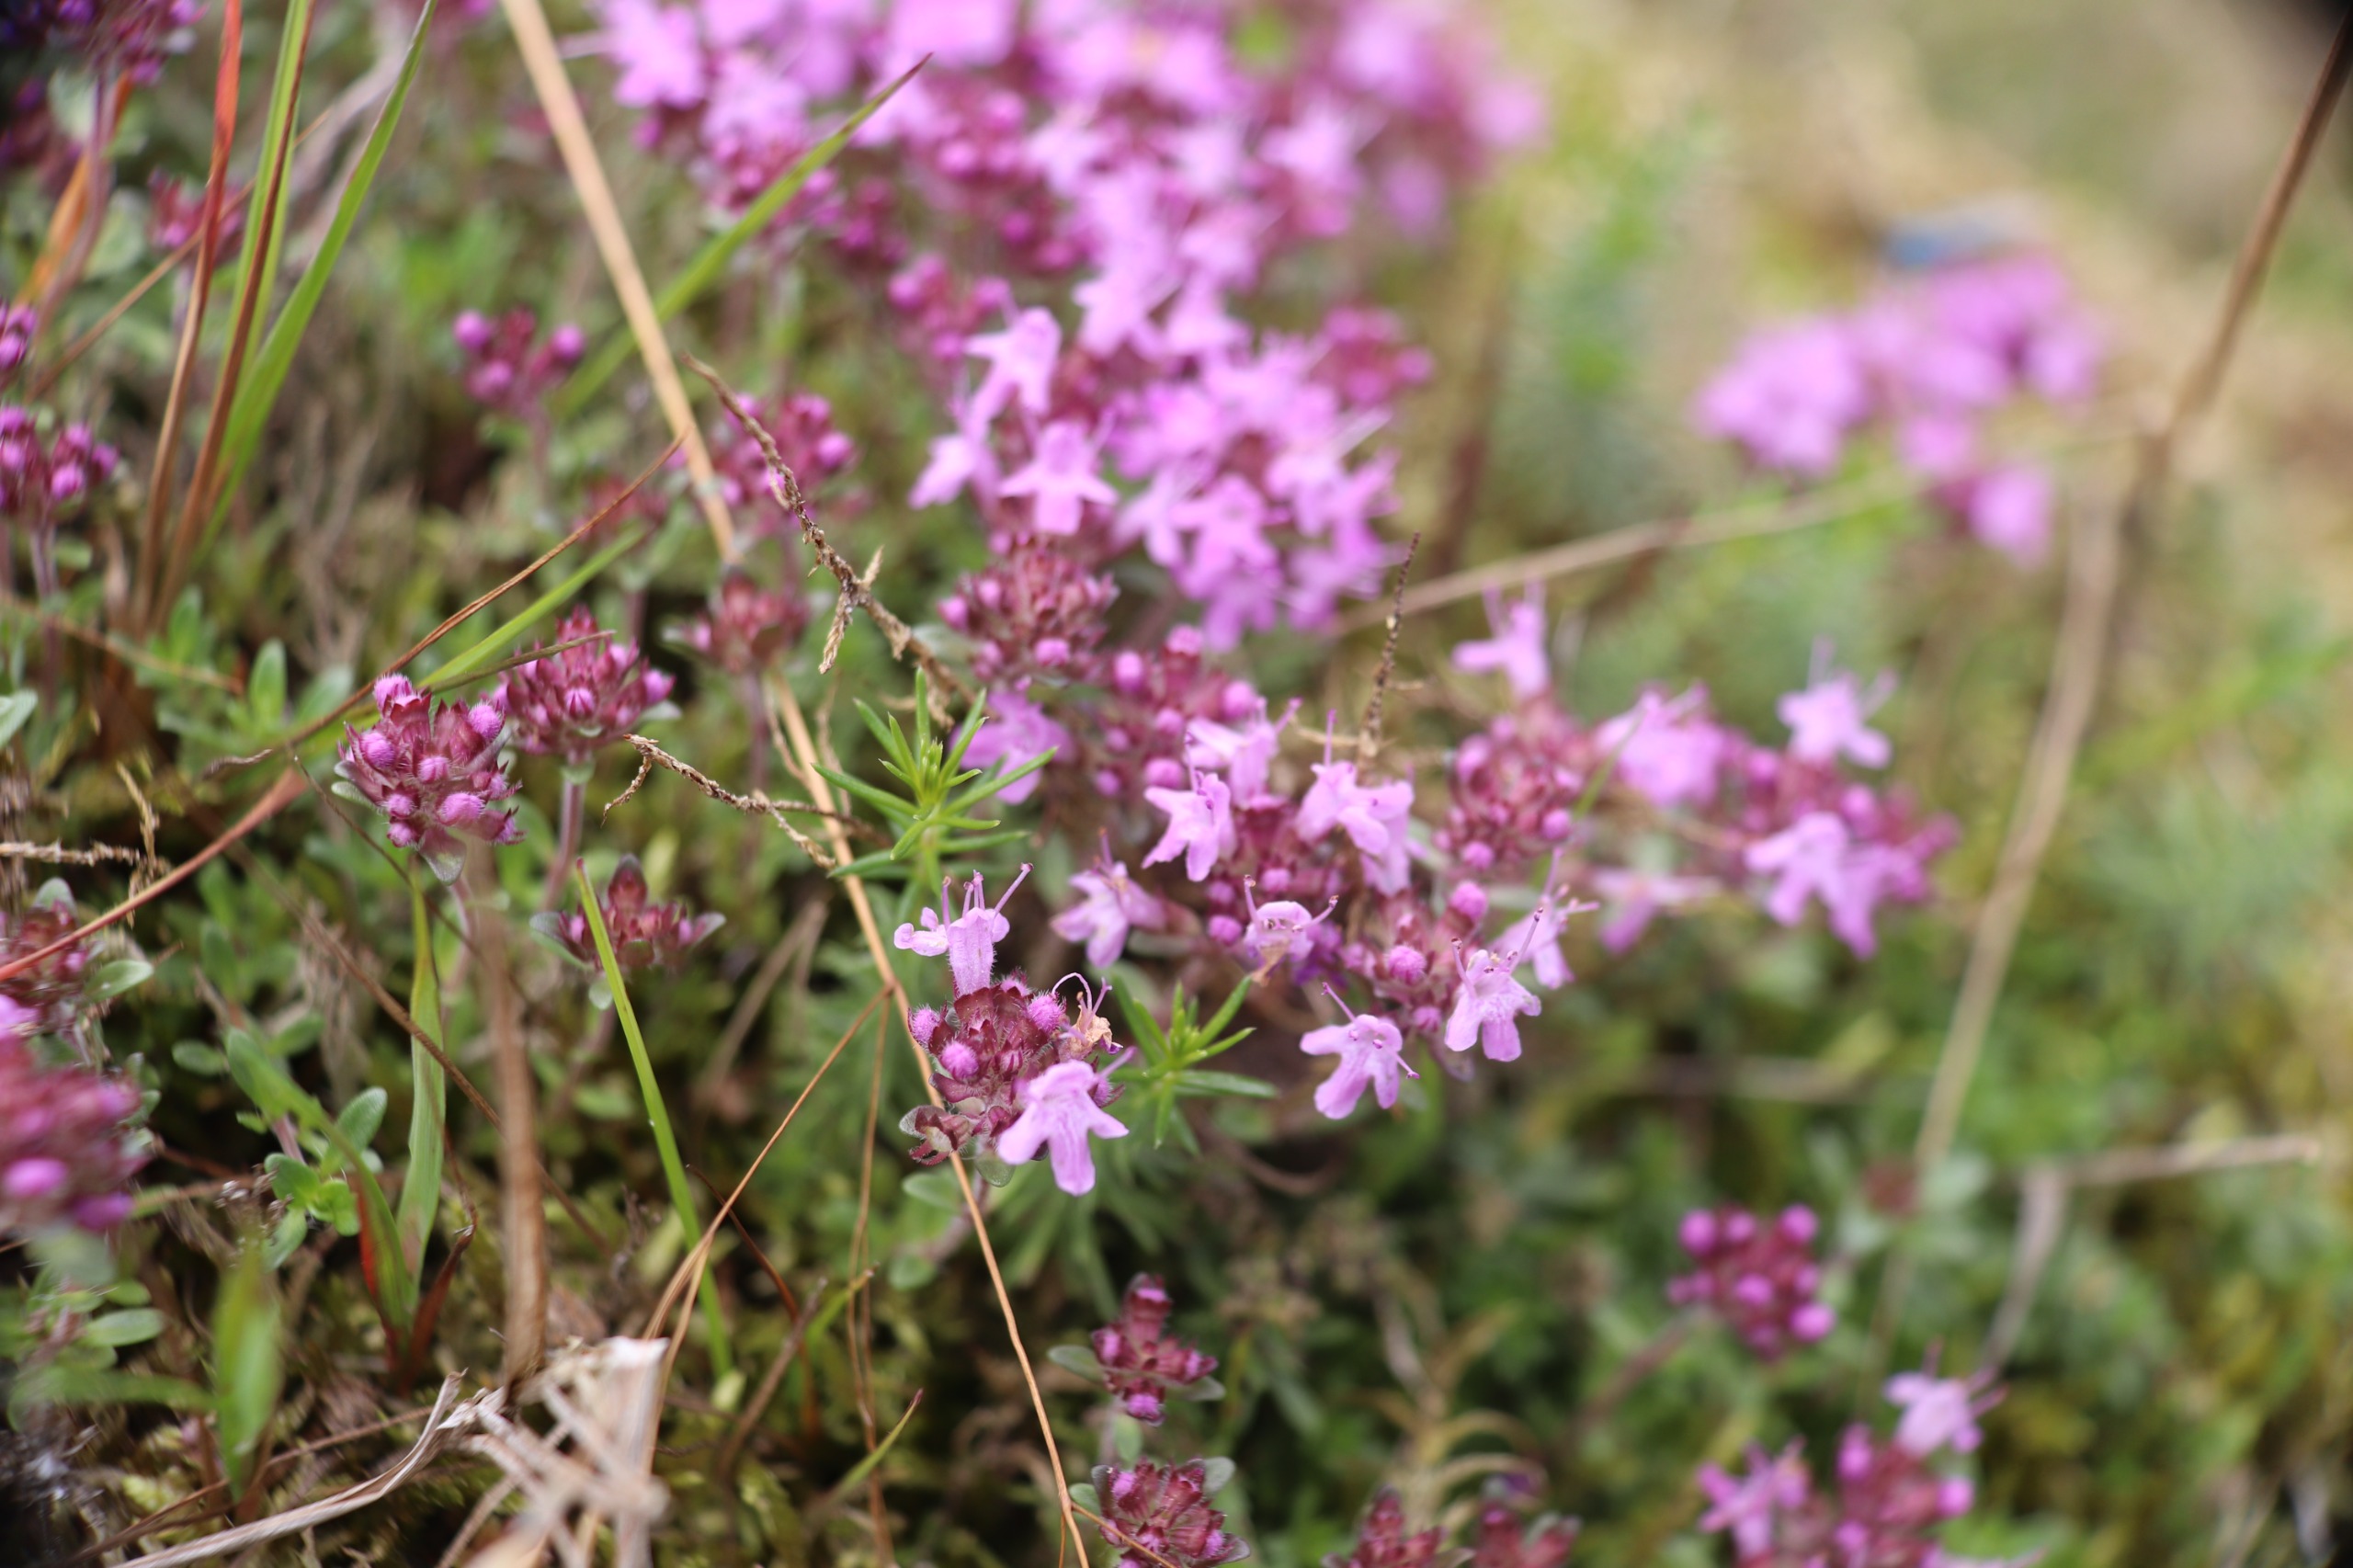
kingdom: Plantae
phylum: Tracheophyta
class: Magnoliopsida
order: Lamiales
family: Lamiaceae
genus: Thymus
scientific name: Thymus serpyllum
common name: Smalbladet timian
